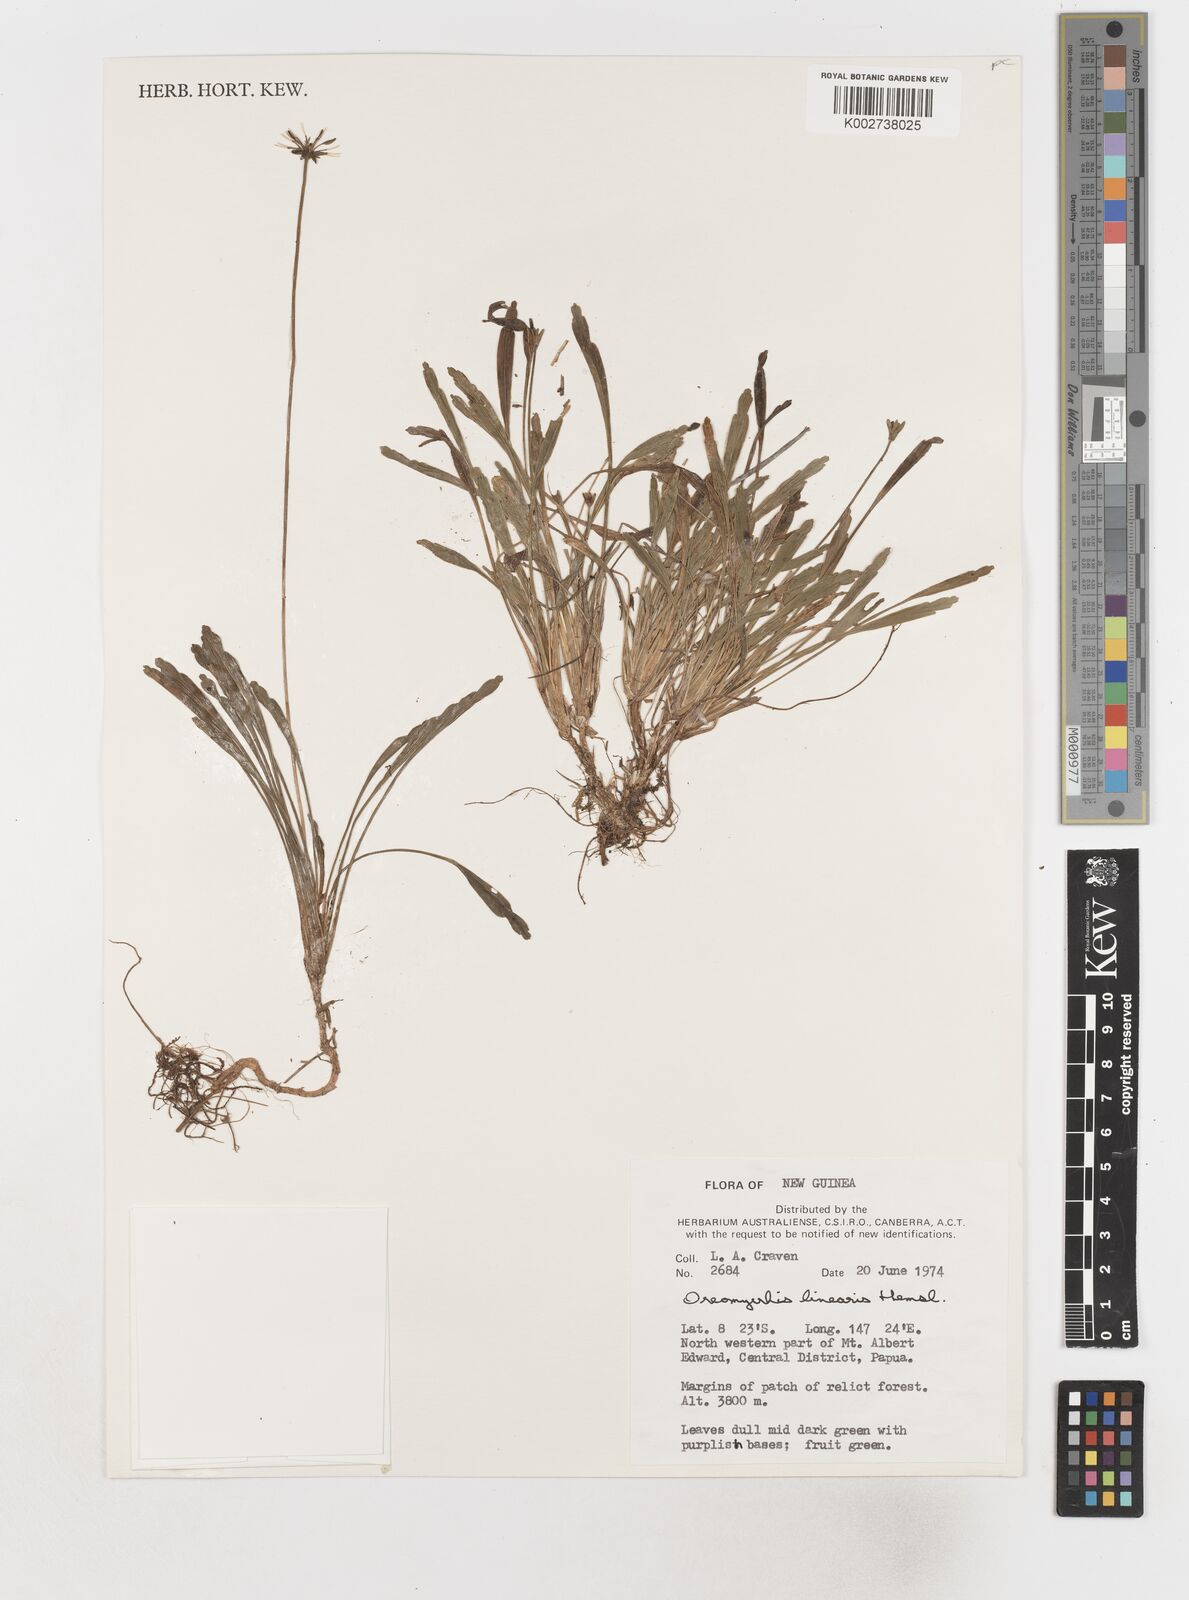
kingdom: Plantae
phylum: Tracheophyta
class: Magnoliopsida
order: Apiales
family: Apiaceae
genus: Chaerophyllum
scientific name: Chaerophyllum lineare
